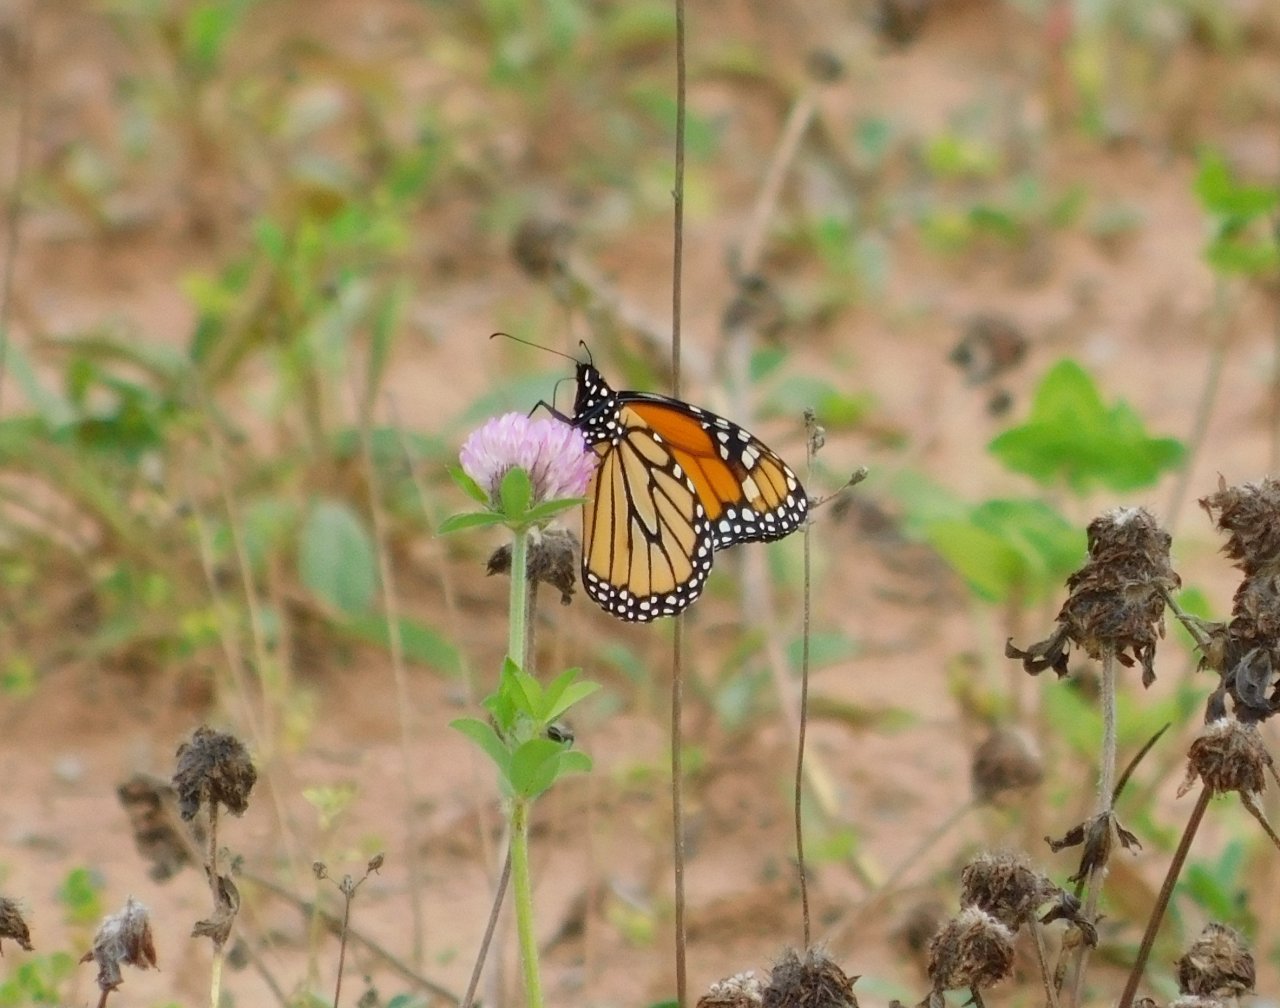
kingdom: Animalia
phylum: Arthropoda
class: Insecta
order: Lepidoptera
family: Nymphalidae
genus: Danaus
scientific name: Danaus plexippus
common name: Monarch
